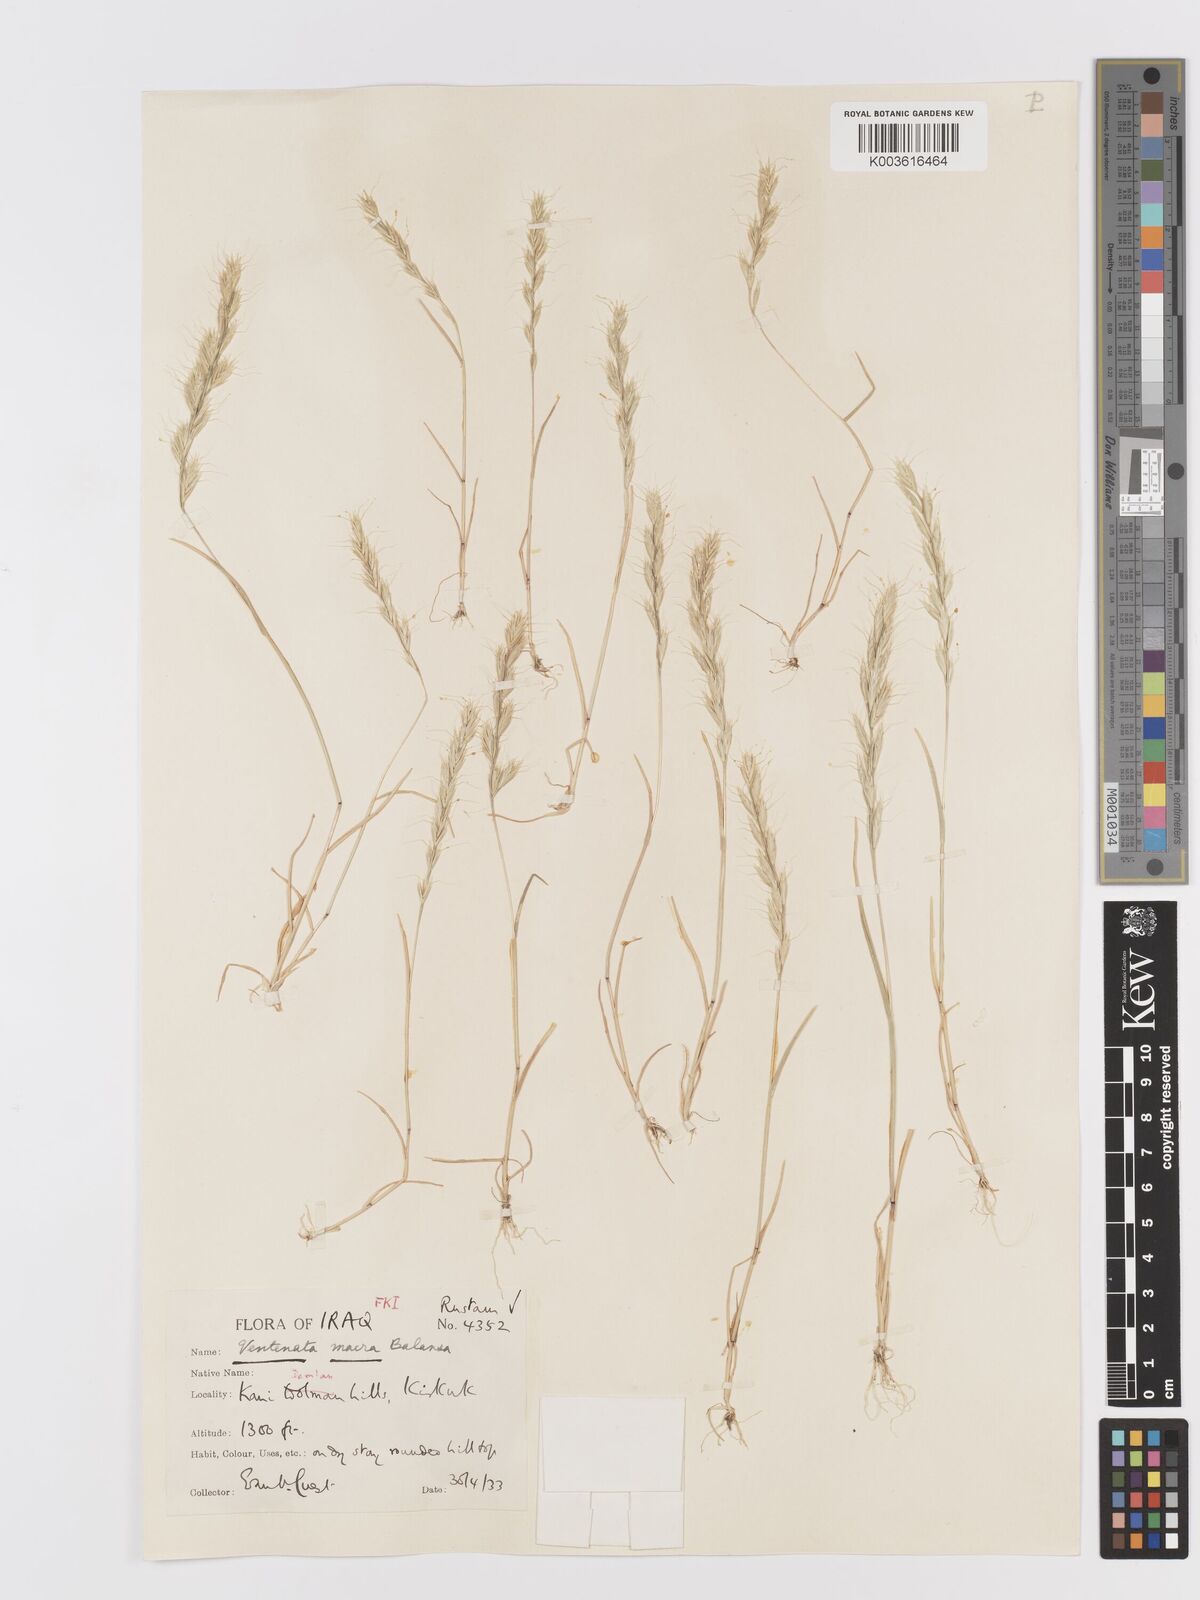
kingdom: Plantae
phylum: Tracheophyta
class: Liliopsida
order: Poales
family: Poaceae
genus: Ventenata
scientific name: Ventenata macra
